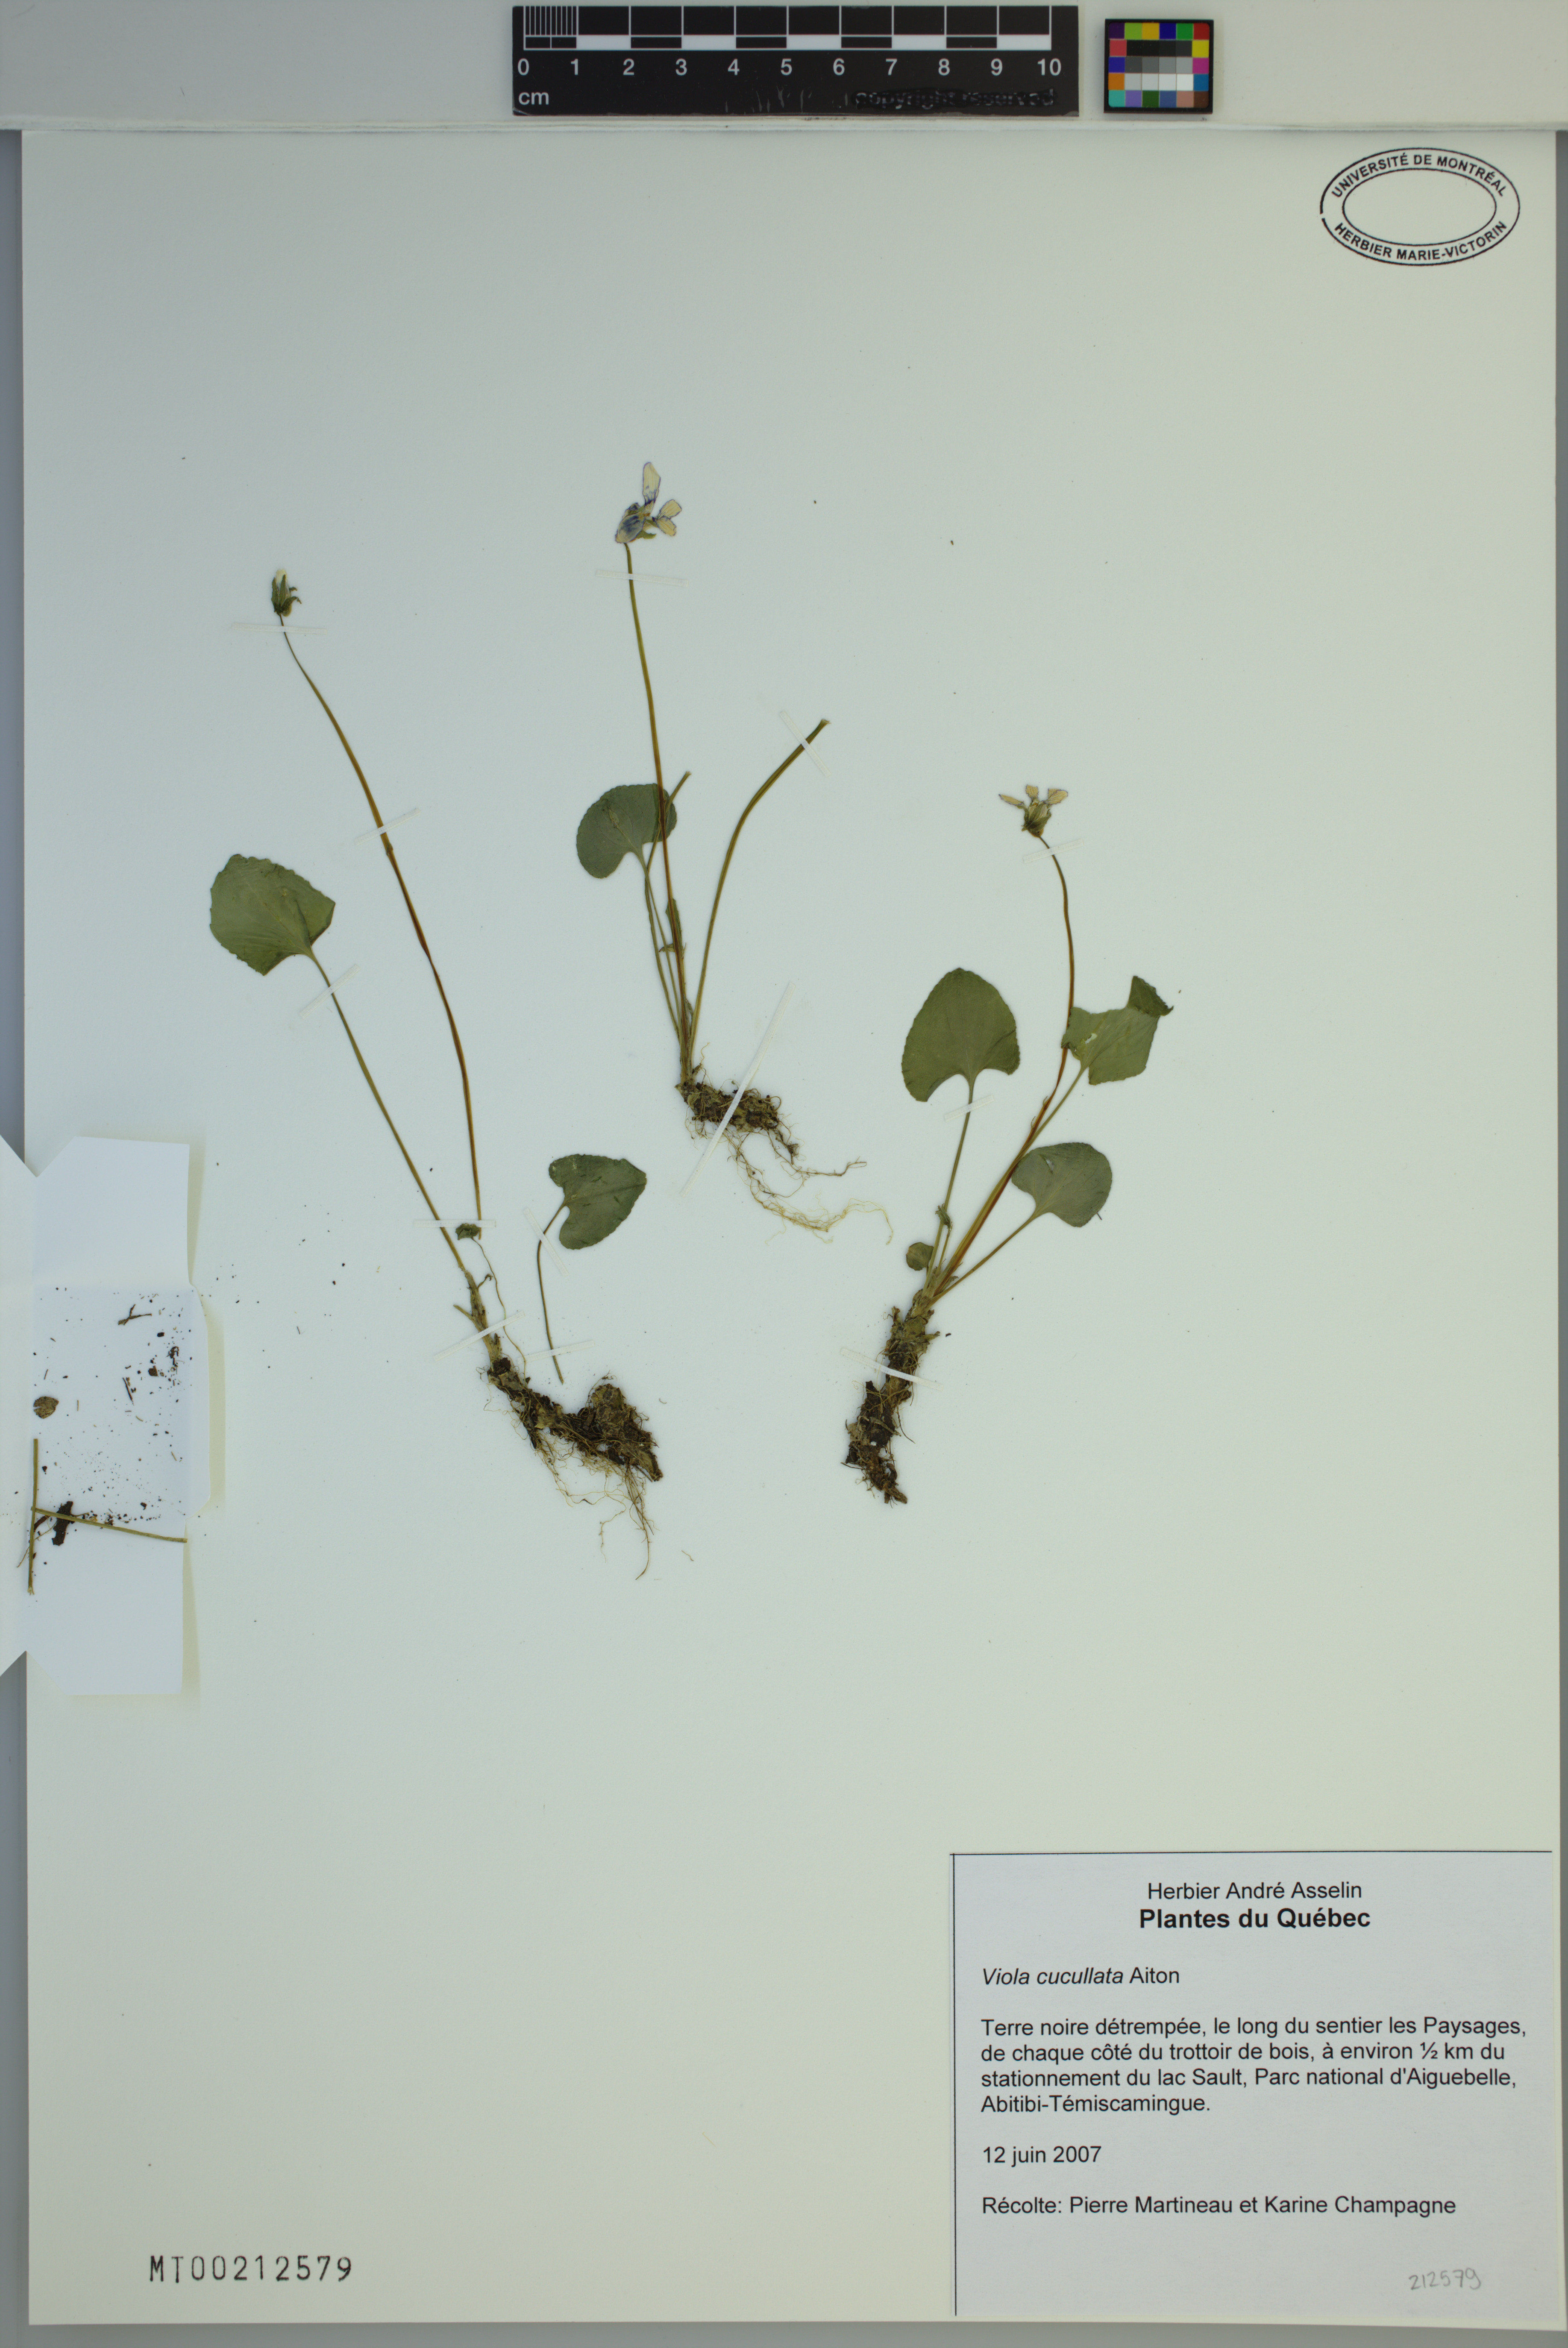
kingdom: Plantae
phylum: Tracheophyta
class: Magnoliopsida
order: Malpighiales
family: Violaceae
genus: Viola
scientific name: Viola cucullata
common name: Marsh blue violet
